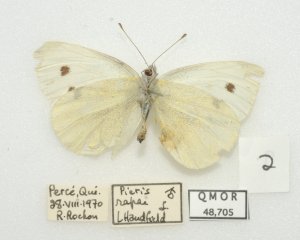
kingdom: Animalia
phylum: Arthropoda
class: Insecta
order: Lepidoptera
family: Pieridae
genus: Pieris
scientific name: Pieris rapae
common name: Cabbage White
